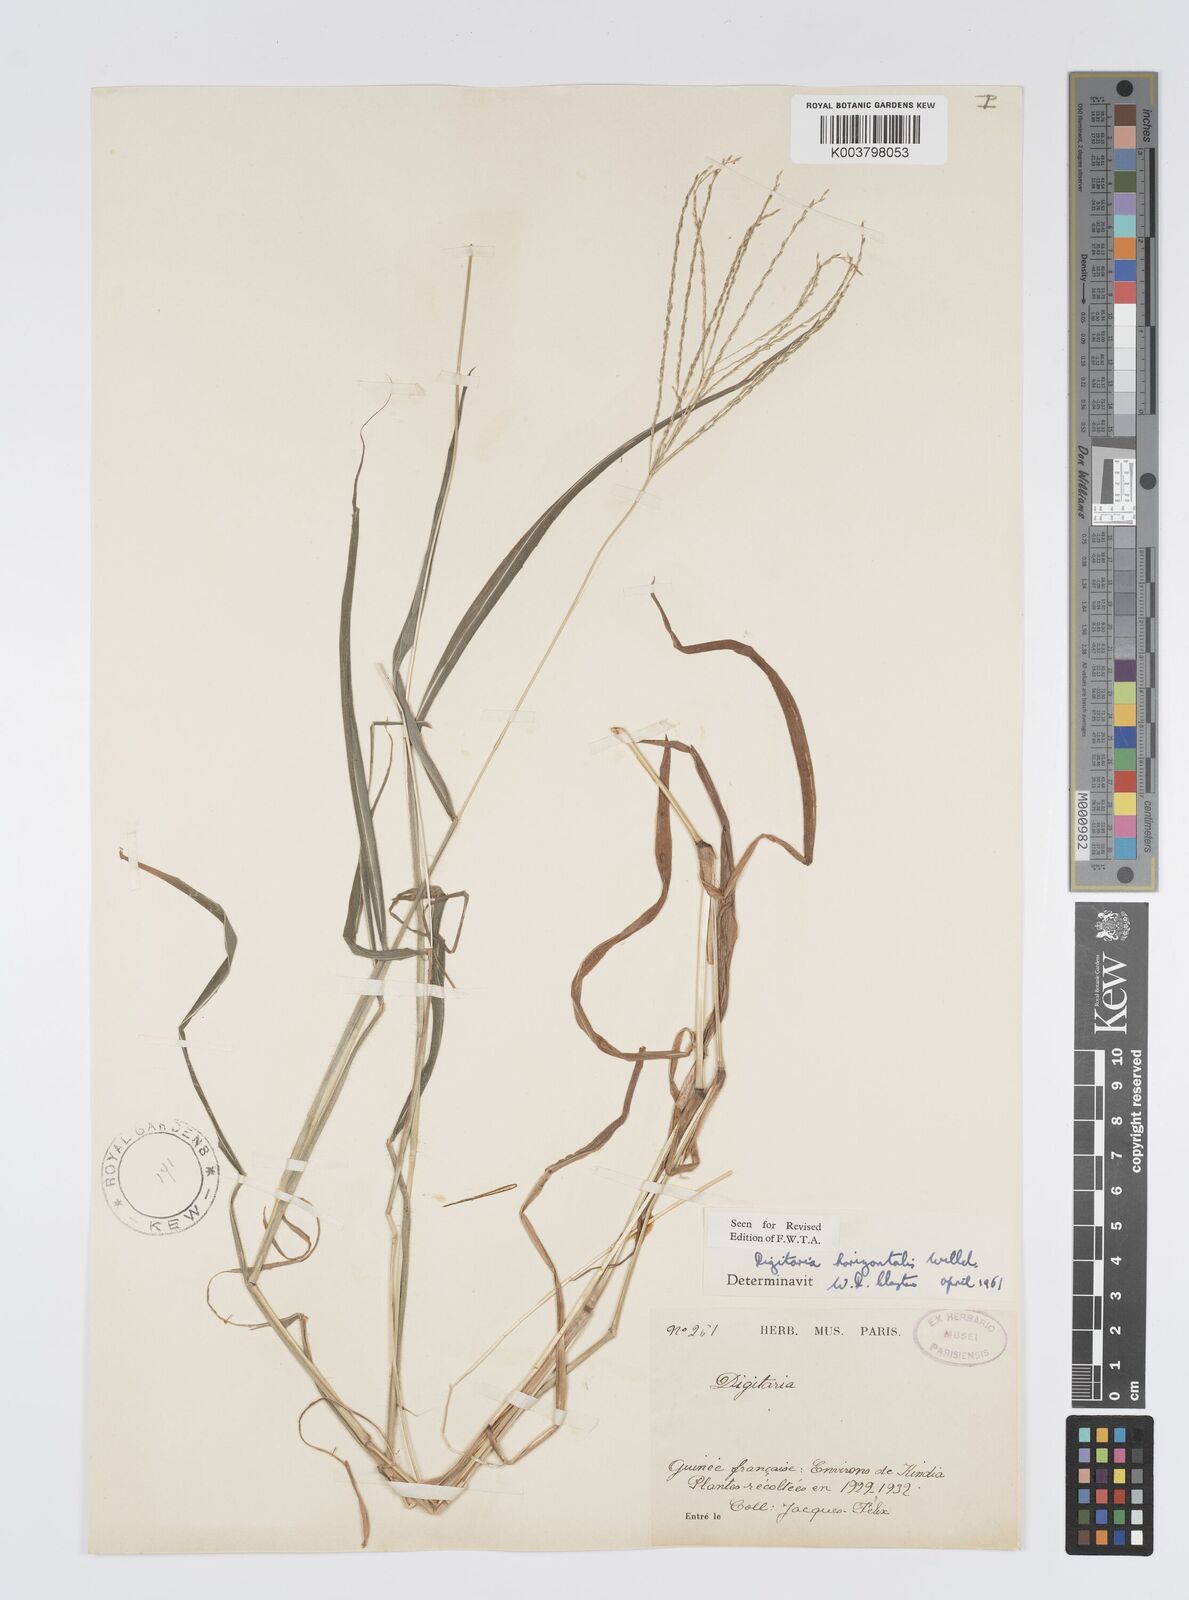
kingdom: Plantae
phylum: Tracheophyta
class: Liliopsida
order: Poales
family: Poaceae
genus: Digitaria
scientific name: Digitaria horizontalis
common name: Jamaican crabgrass
